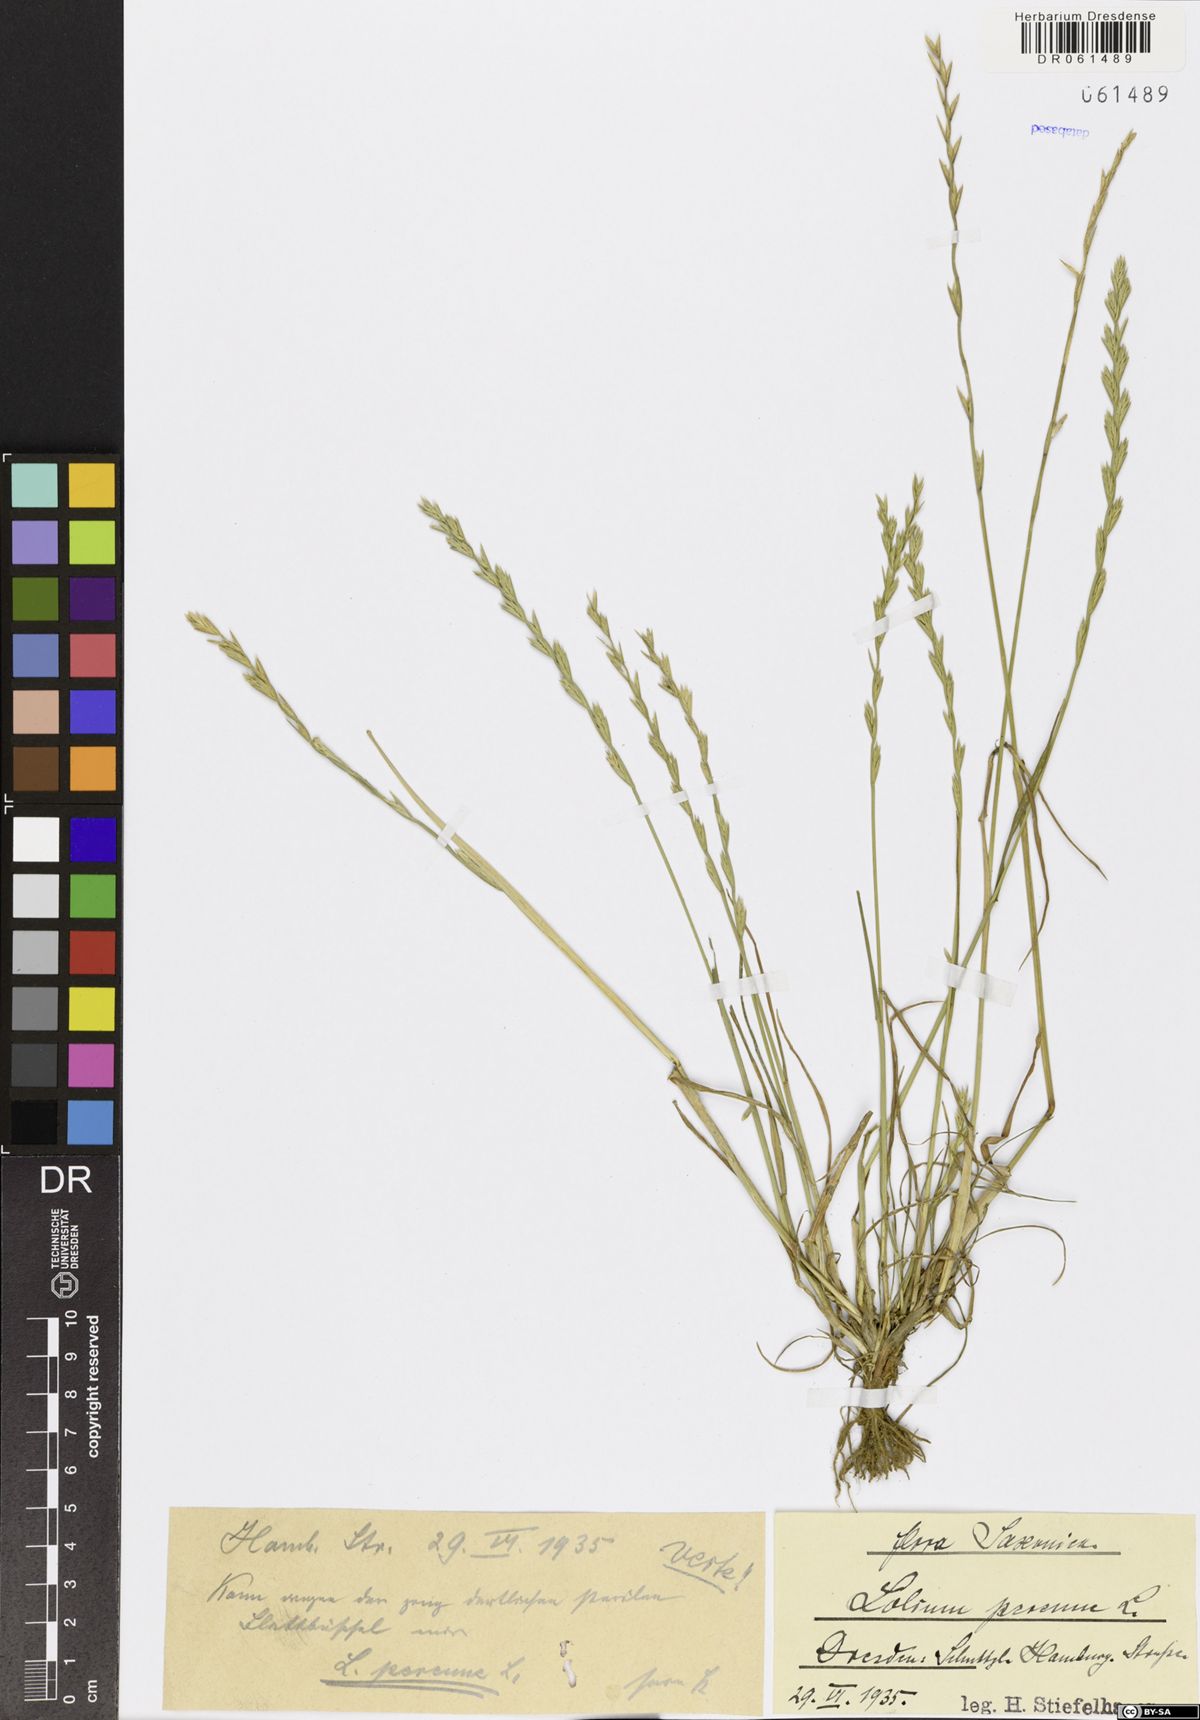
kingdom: Plantae
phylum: Tracheophyta
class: Liliopsida
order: Poales
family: Poaceae
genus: Lolium
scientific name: Lolium perenne
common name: Perennial ryegrass
